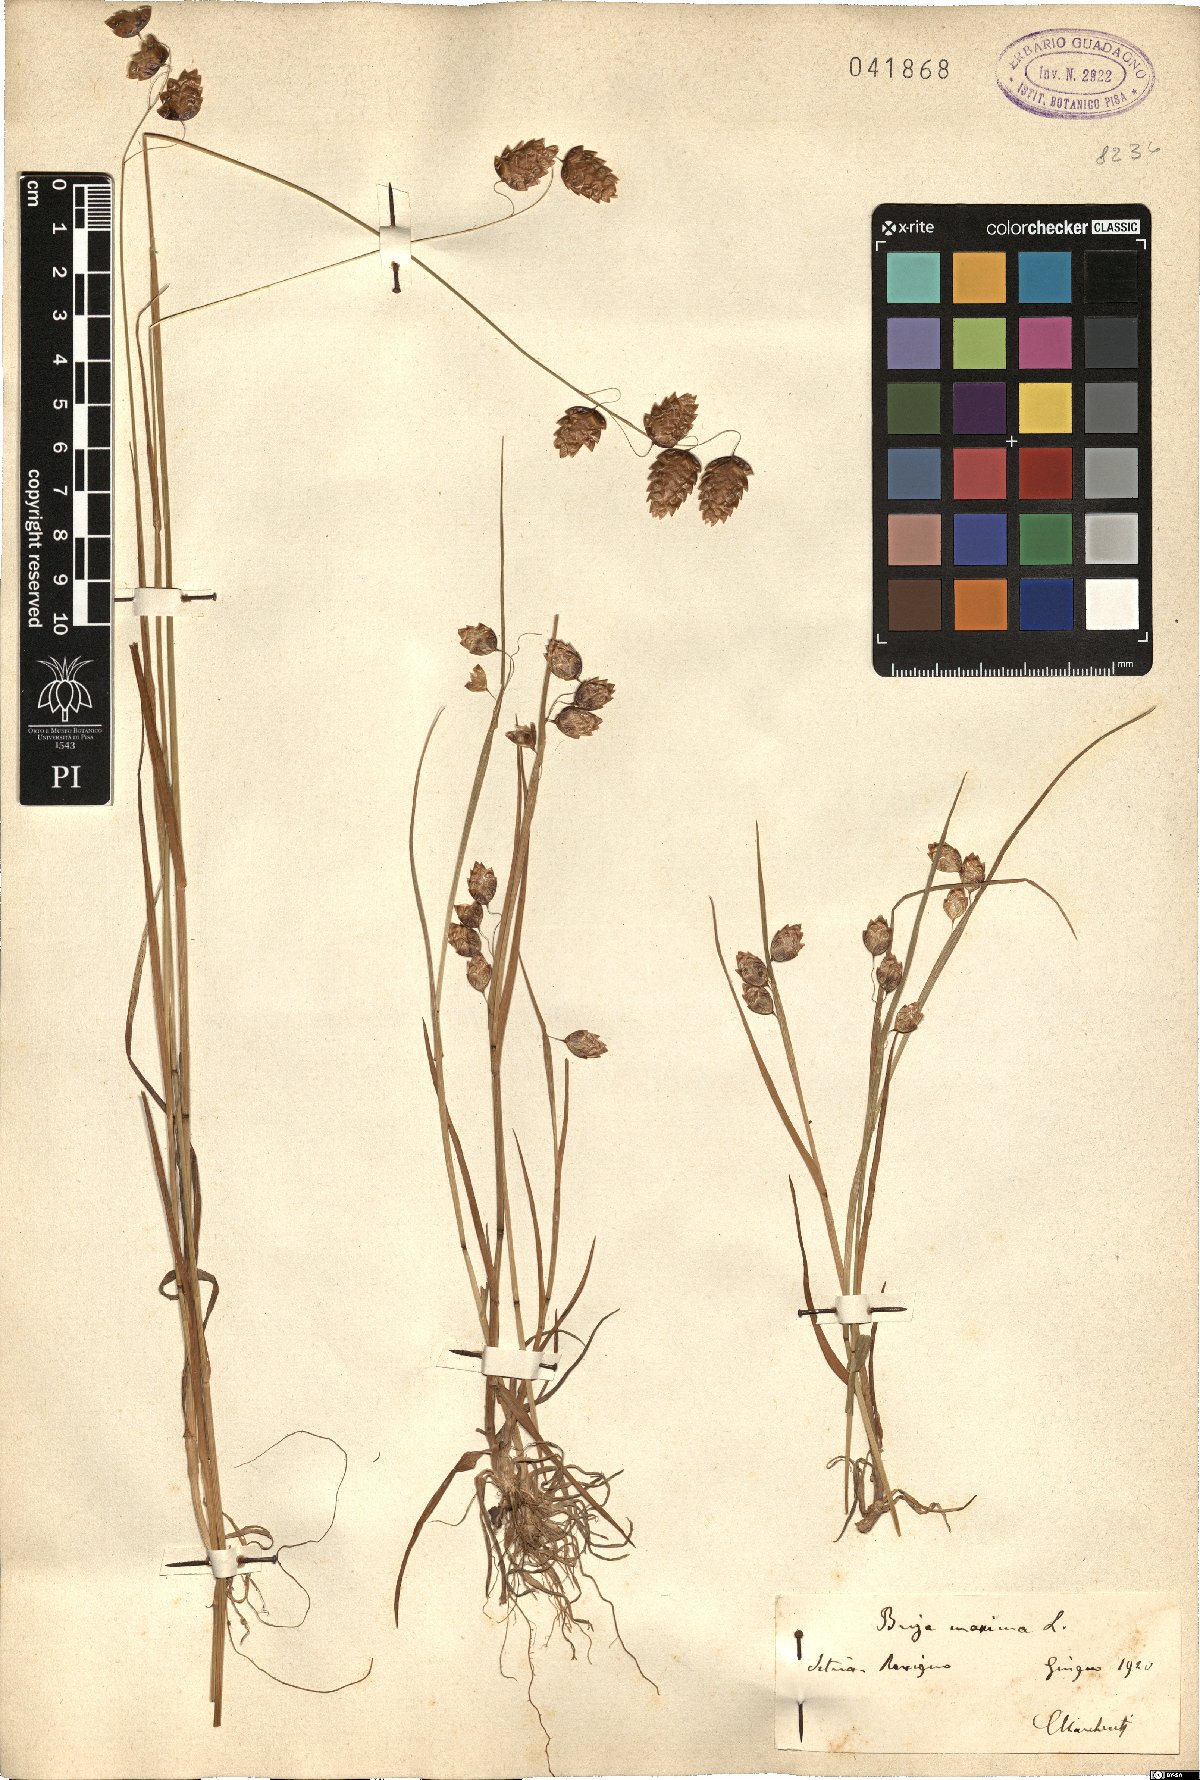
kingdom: Plantae
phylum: Tracheophyta
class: Liliopsida
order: Poales
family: Poaceae
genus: Briza
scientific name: Briza maxima
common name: Big quakinggrass
